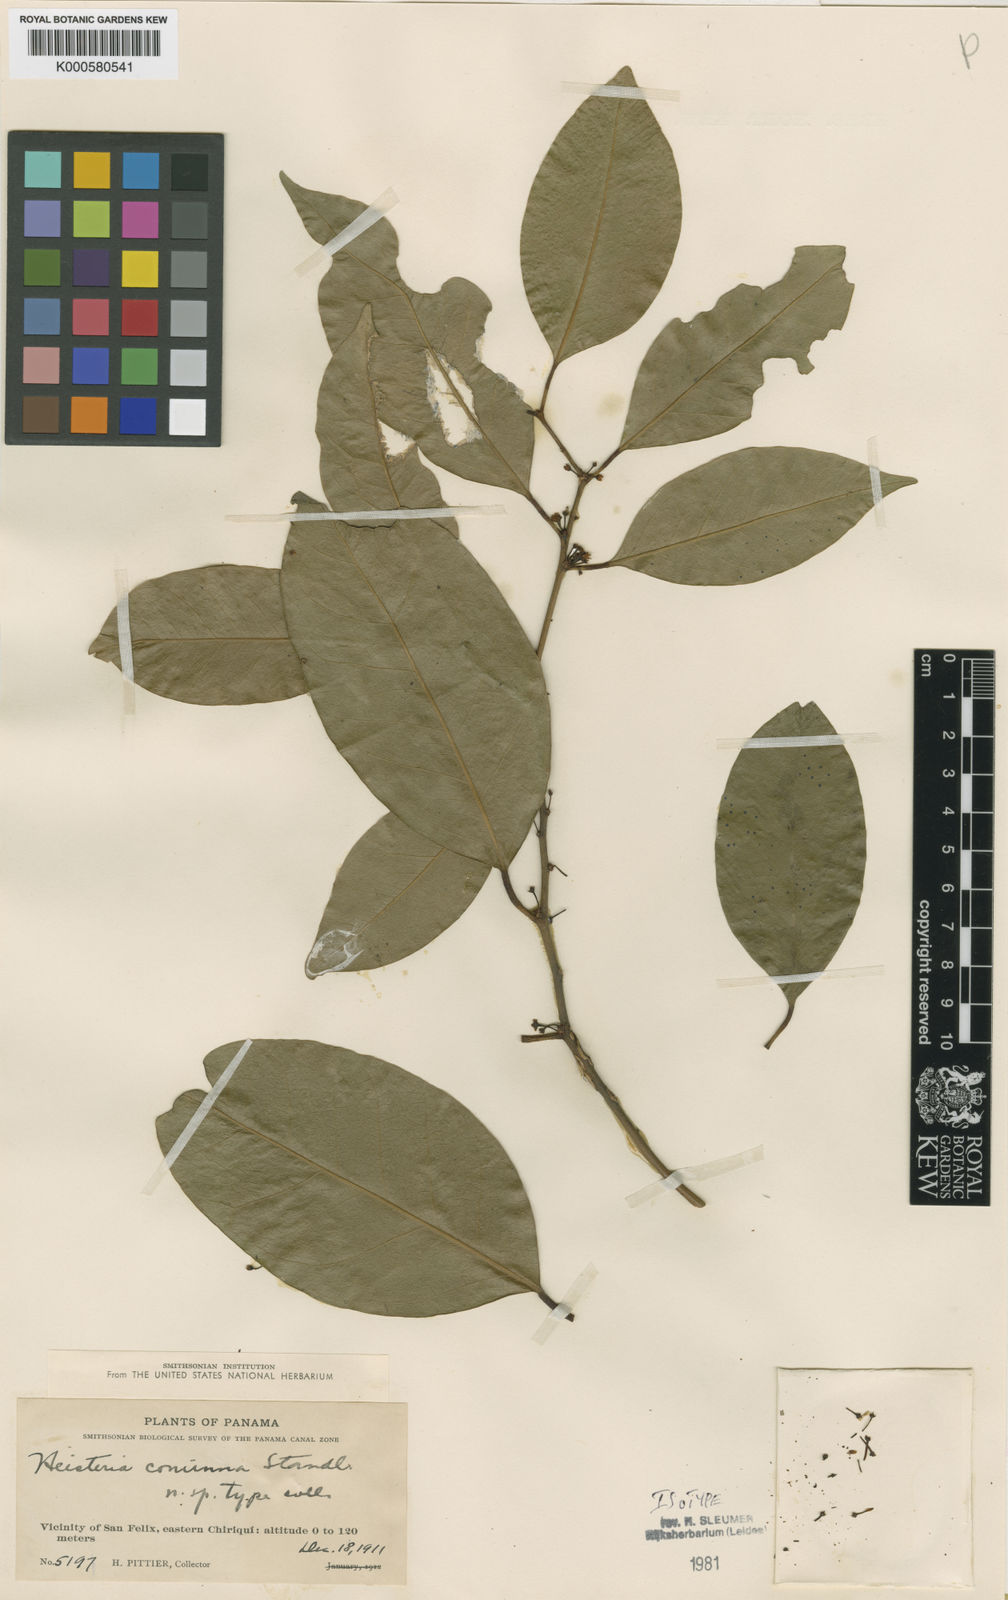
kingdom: Plantae
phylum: Tracheophyta
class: Magnoliopsida
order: Santalales
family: Erythropalaceae
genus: Heisteria
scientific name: Heisteria concinna
